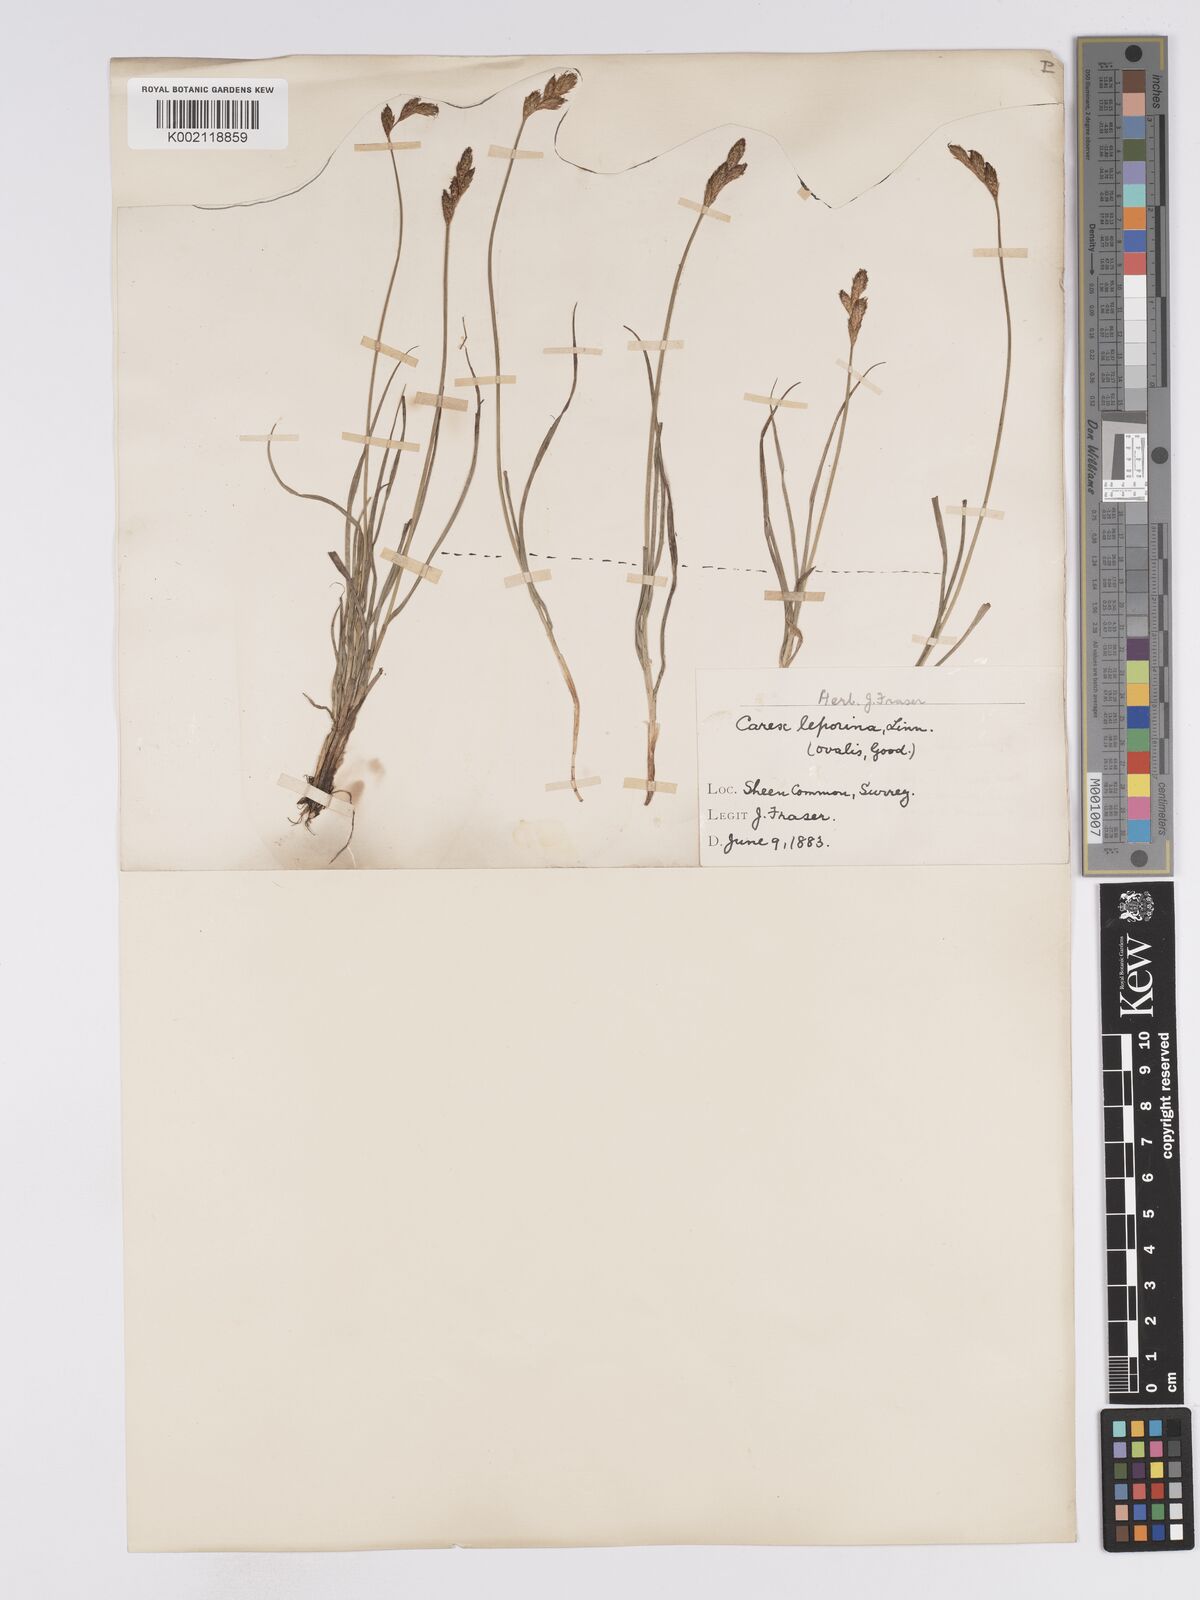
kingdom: Plantae
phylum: Tracheophyta
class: Liliopsida
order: Poales
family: Cyperaceae
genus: Carex
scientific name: Carex leporina
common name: Oval sedge
